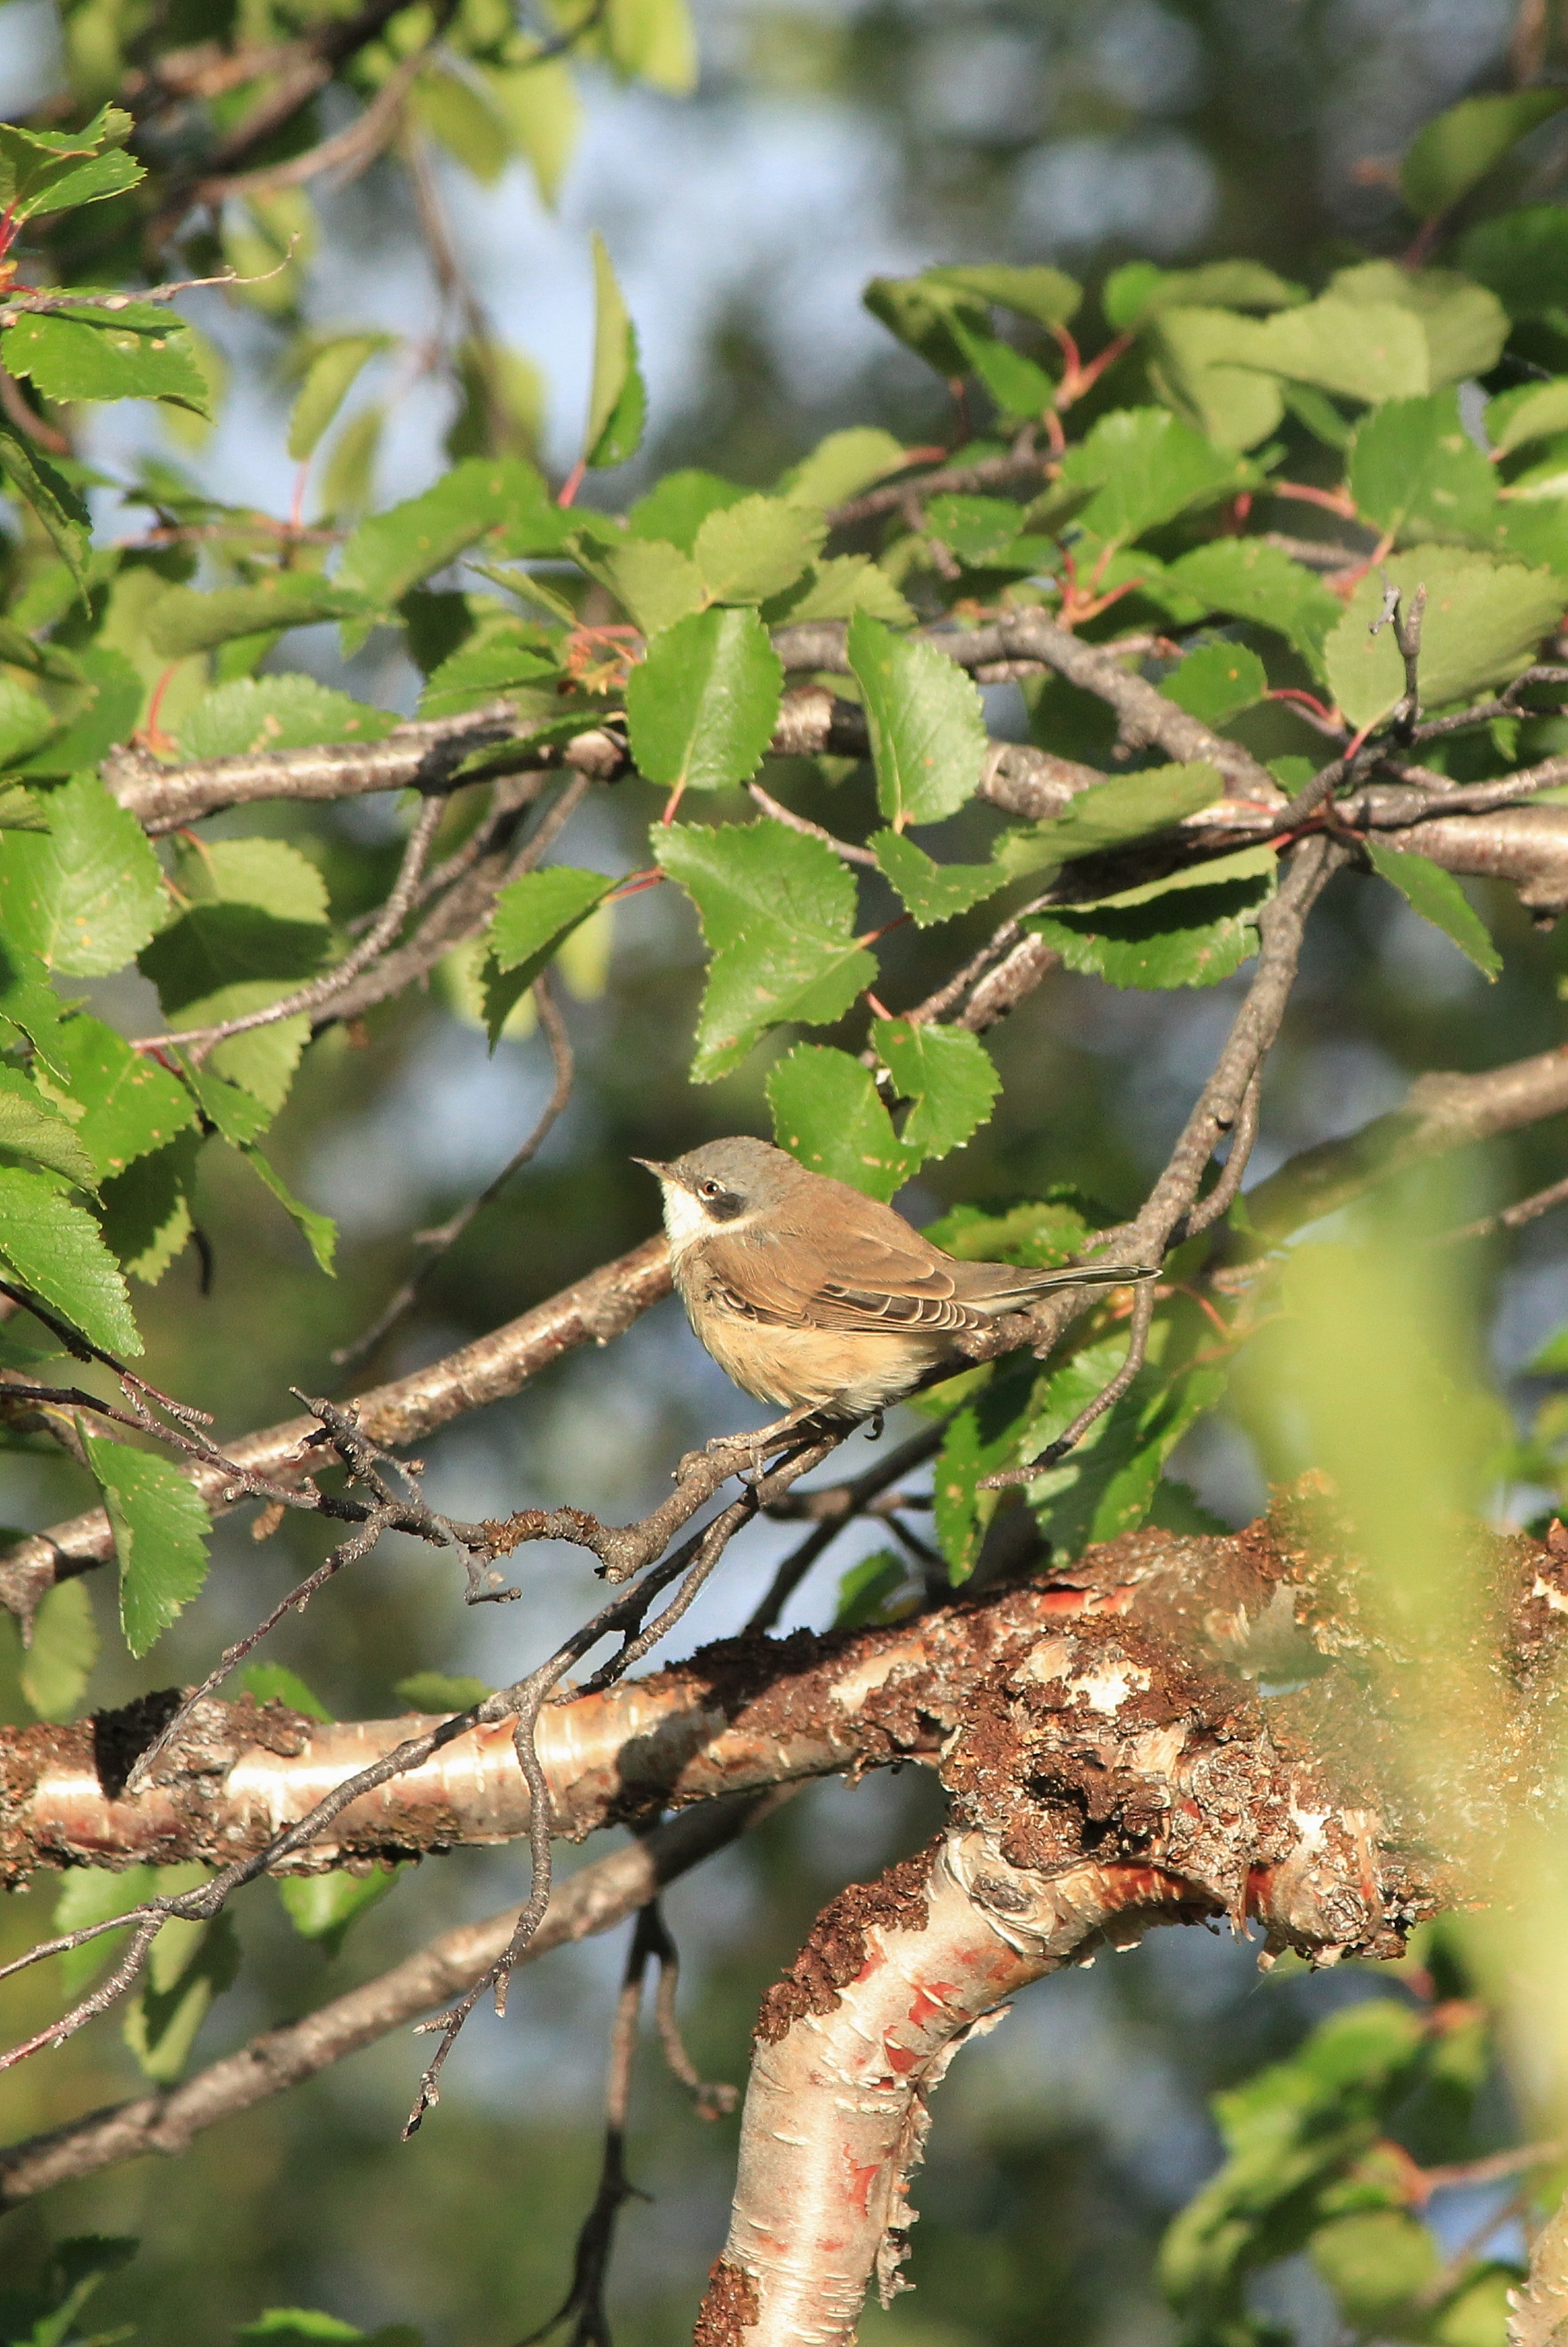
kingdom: Animalia
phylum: Chordata
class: Aves
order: Passeriformes
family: Sylviidae
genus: Sylvia
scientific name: Sylvia curruca
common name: Lesser whitethroat
